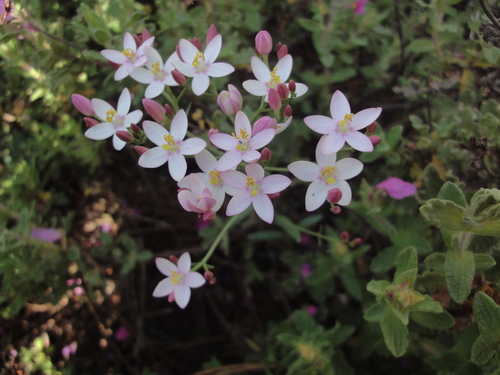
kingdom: Plantae
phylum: Tracheophyta
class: Magnoliopsida
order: Gentianales
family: Gentianaceae
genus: Centaurium
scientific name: Centaurium
